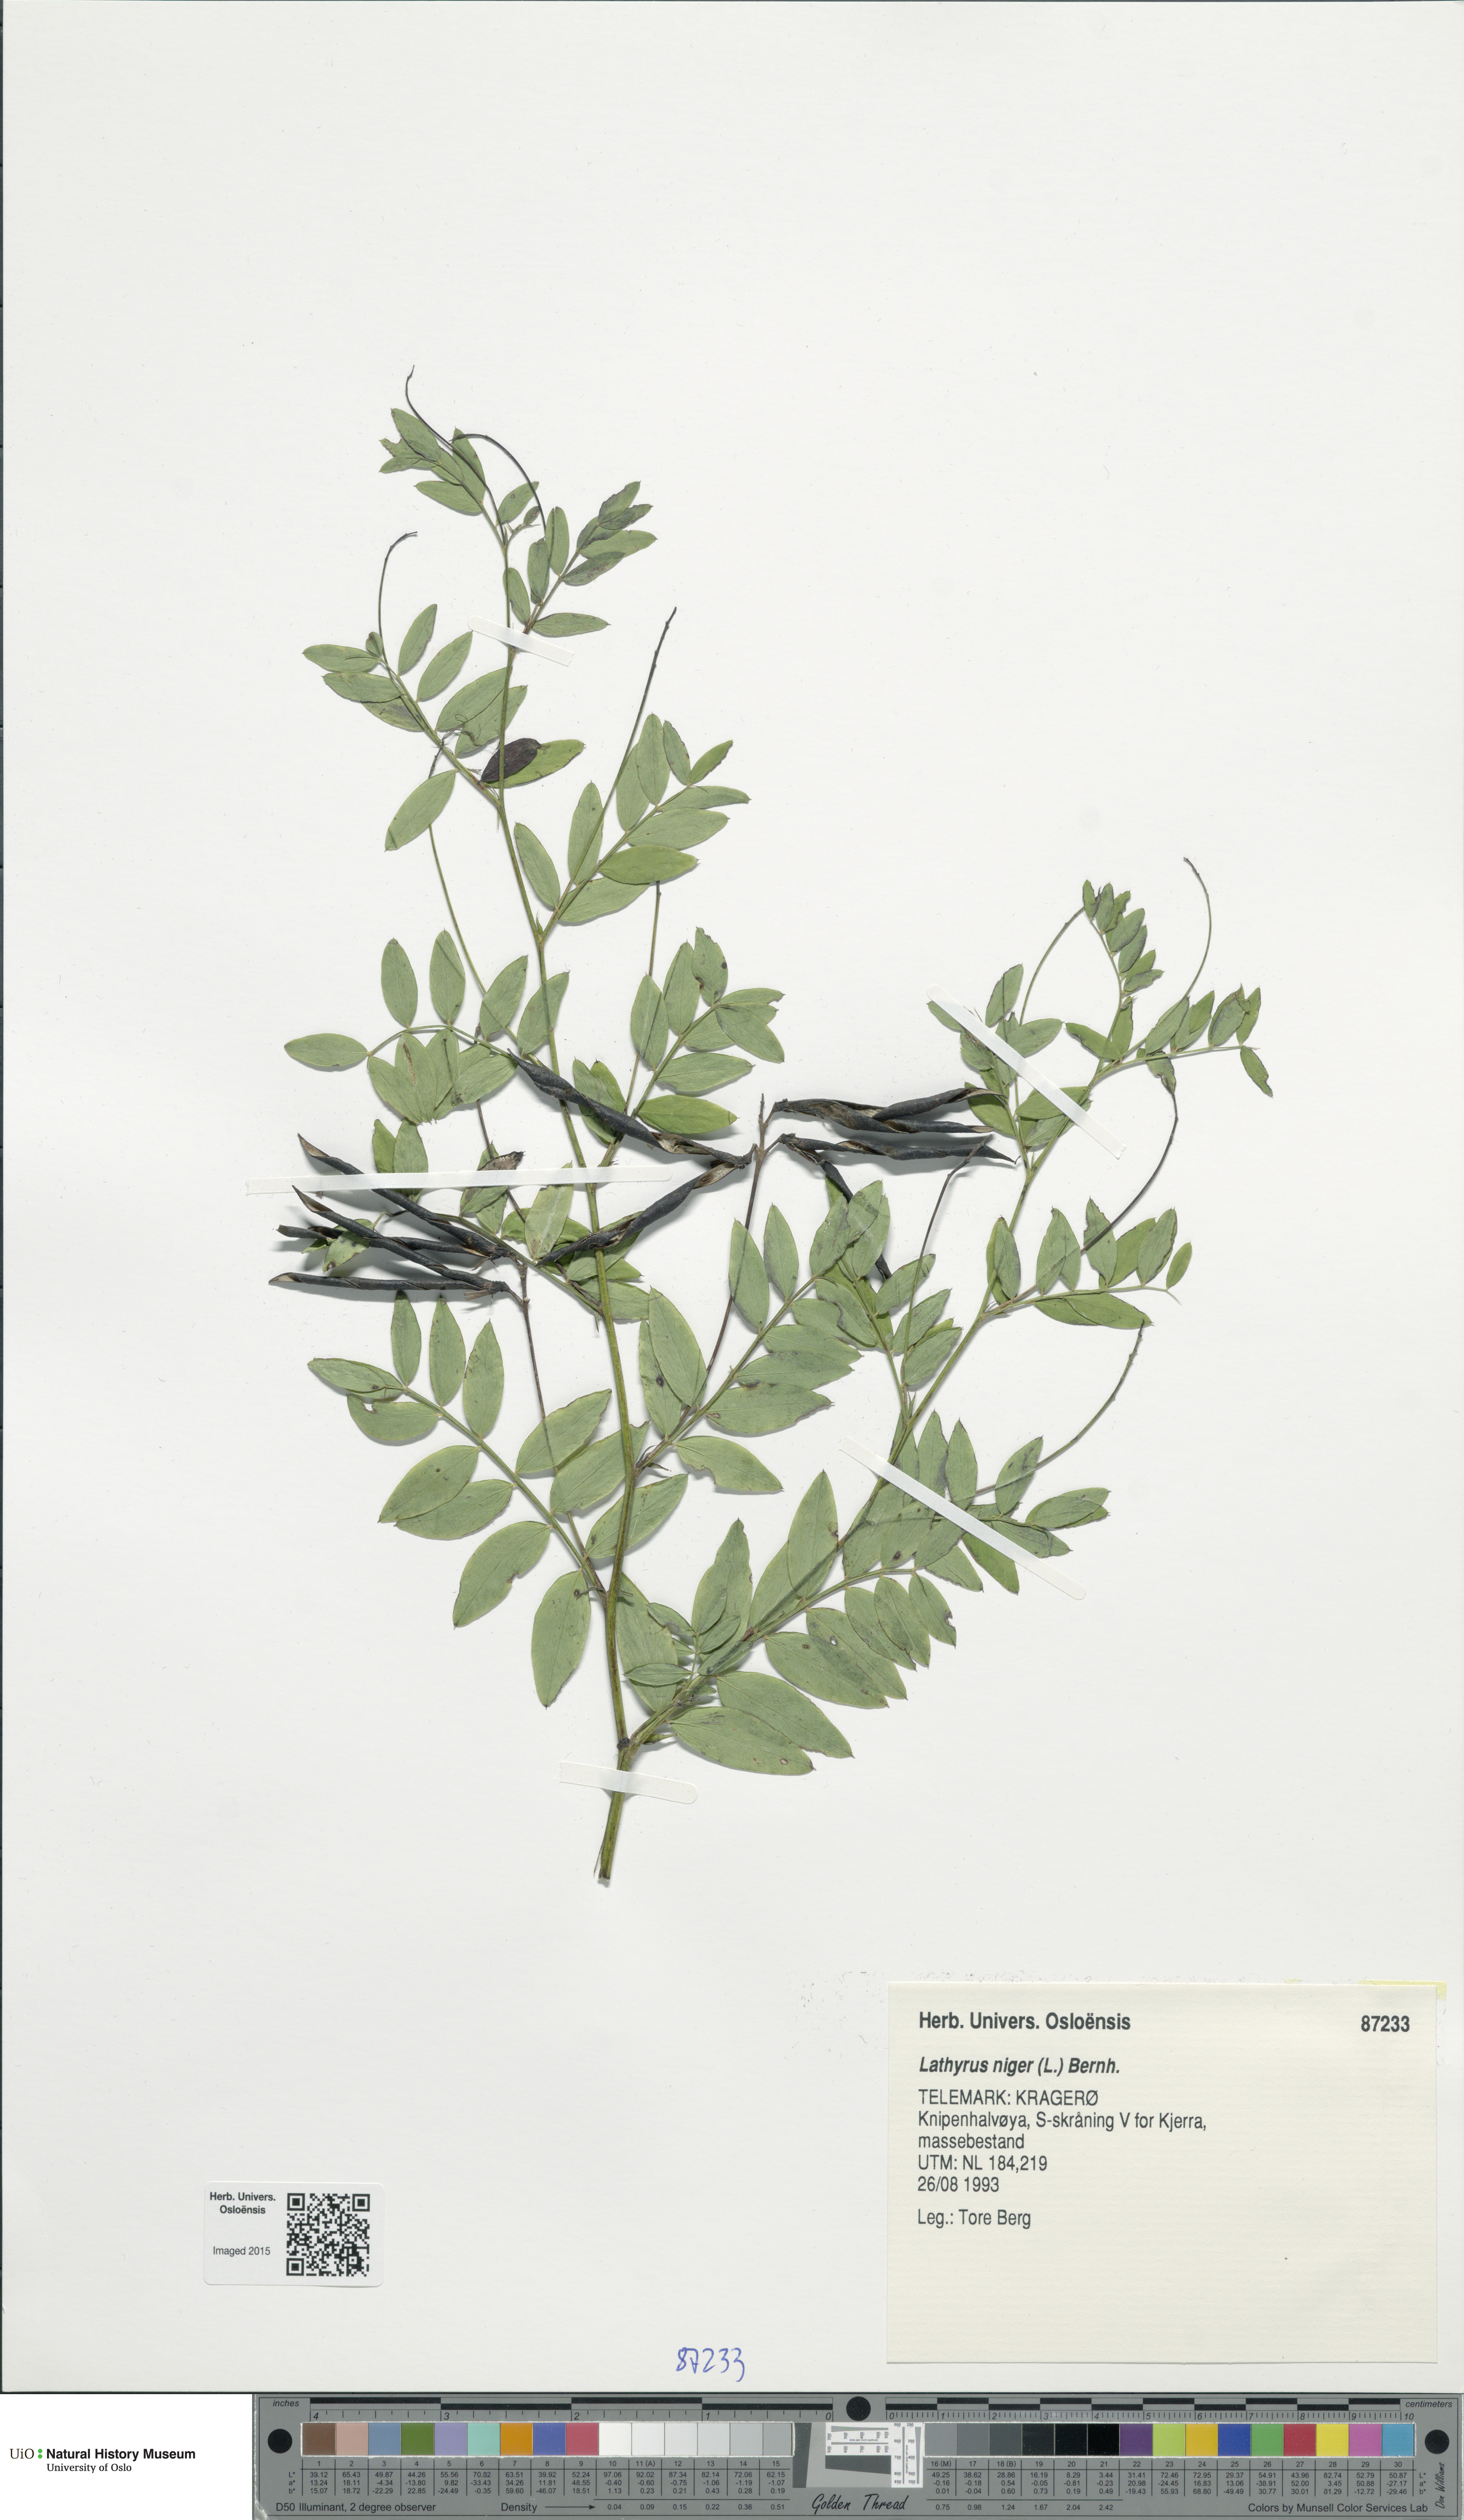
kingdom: Plantae
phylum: Tracheophyta
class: Magnoliopsida
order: Fabales
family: Fabaceae
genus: Lathyrus
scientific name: Lathyrus niger
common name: Black pea
